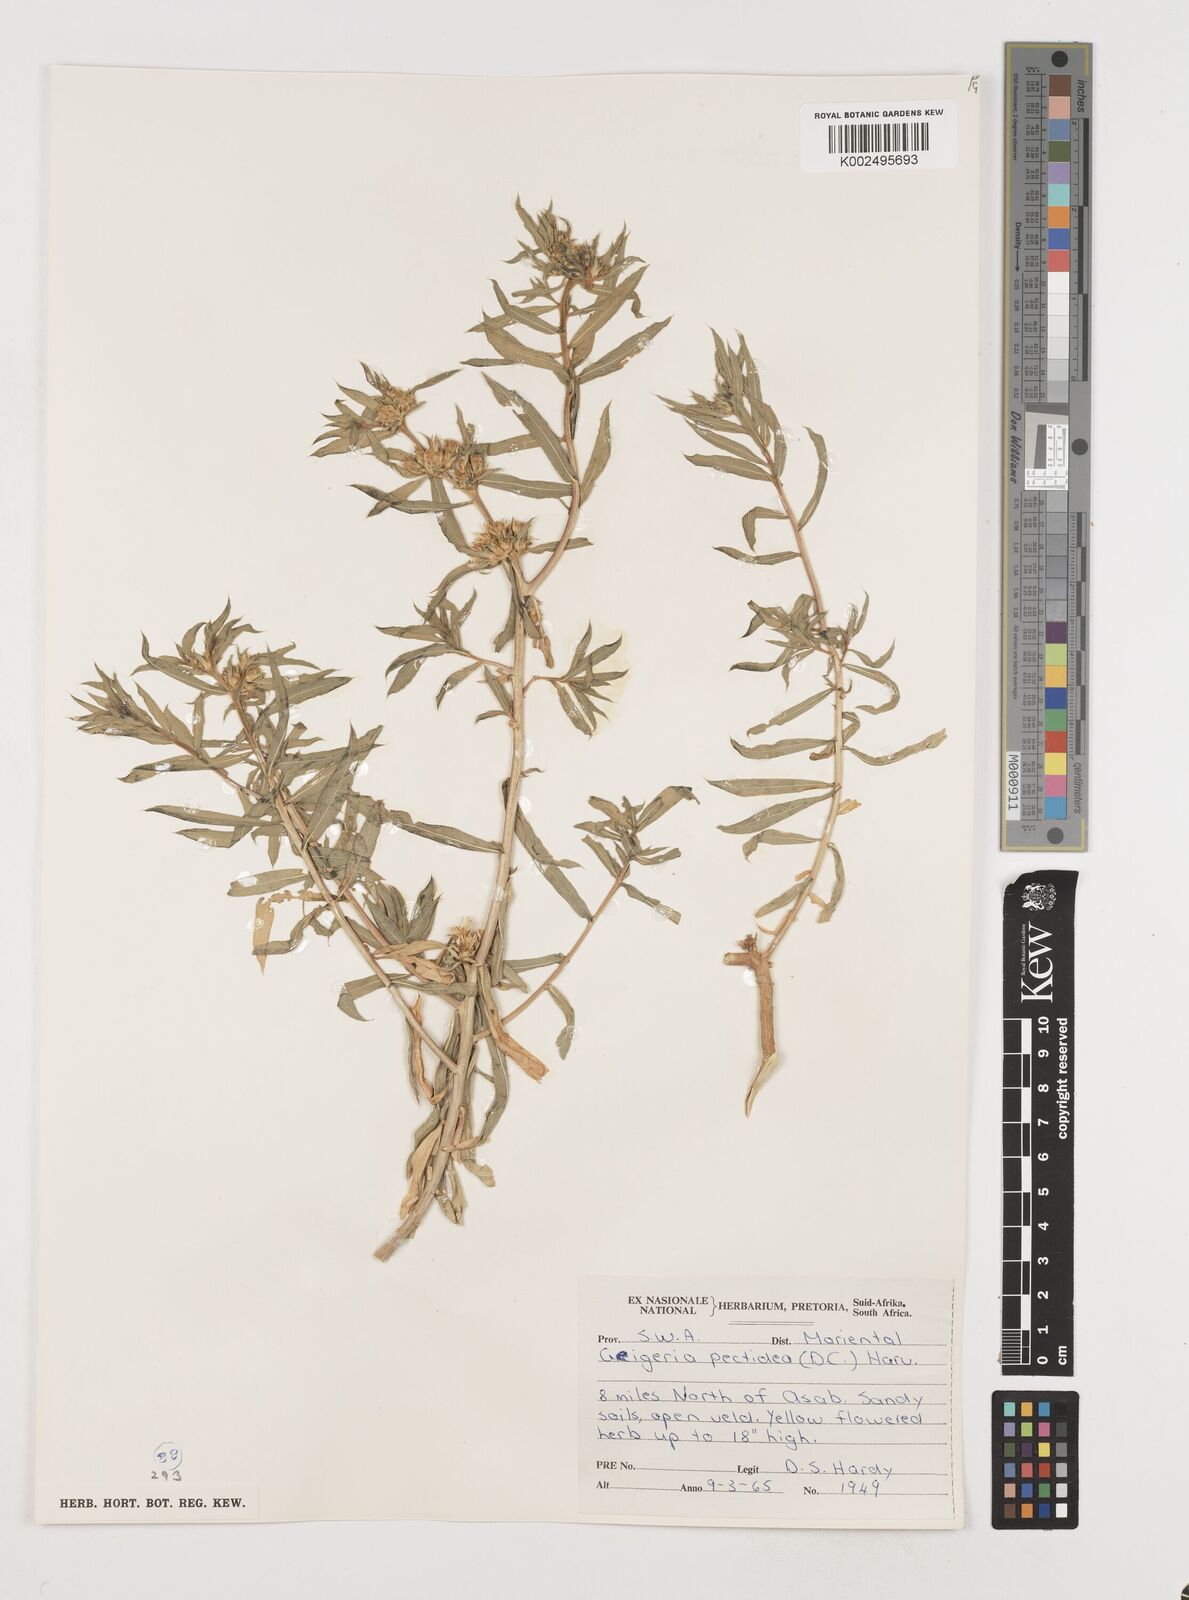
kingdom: Plantae
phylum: Tracheophyta
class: Magnoliopsida
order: Asterales
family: Asteraceae
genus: Geigeria
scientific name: Geigeria pectidea
